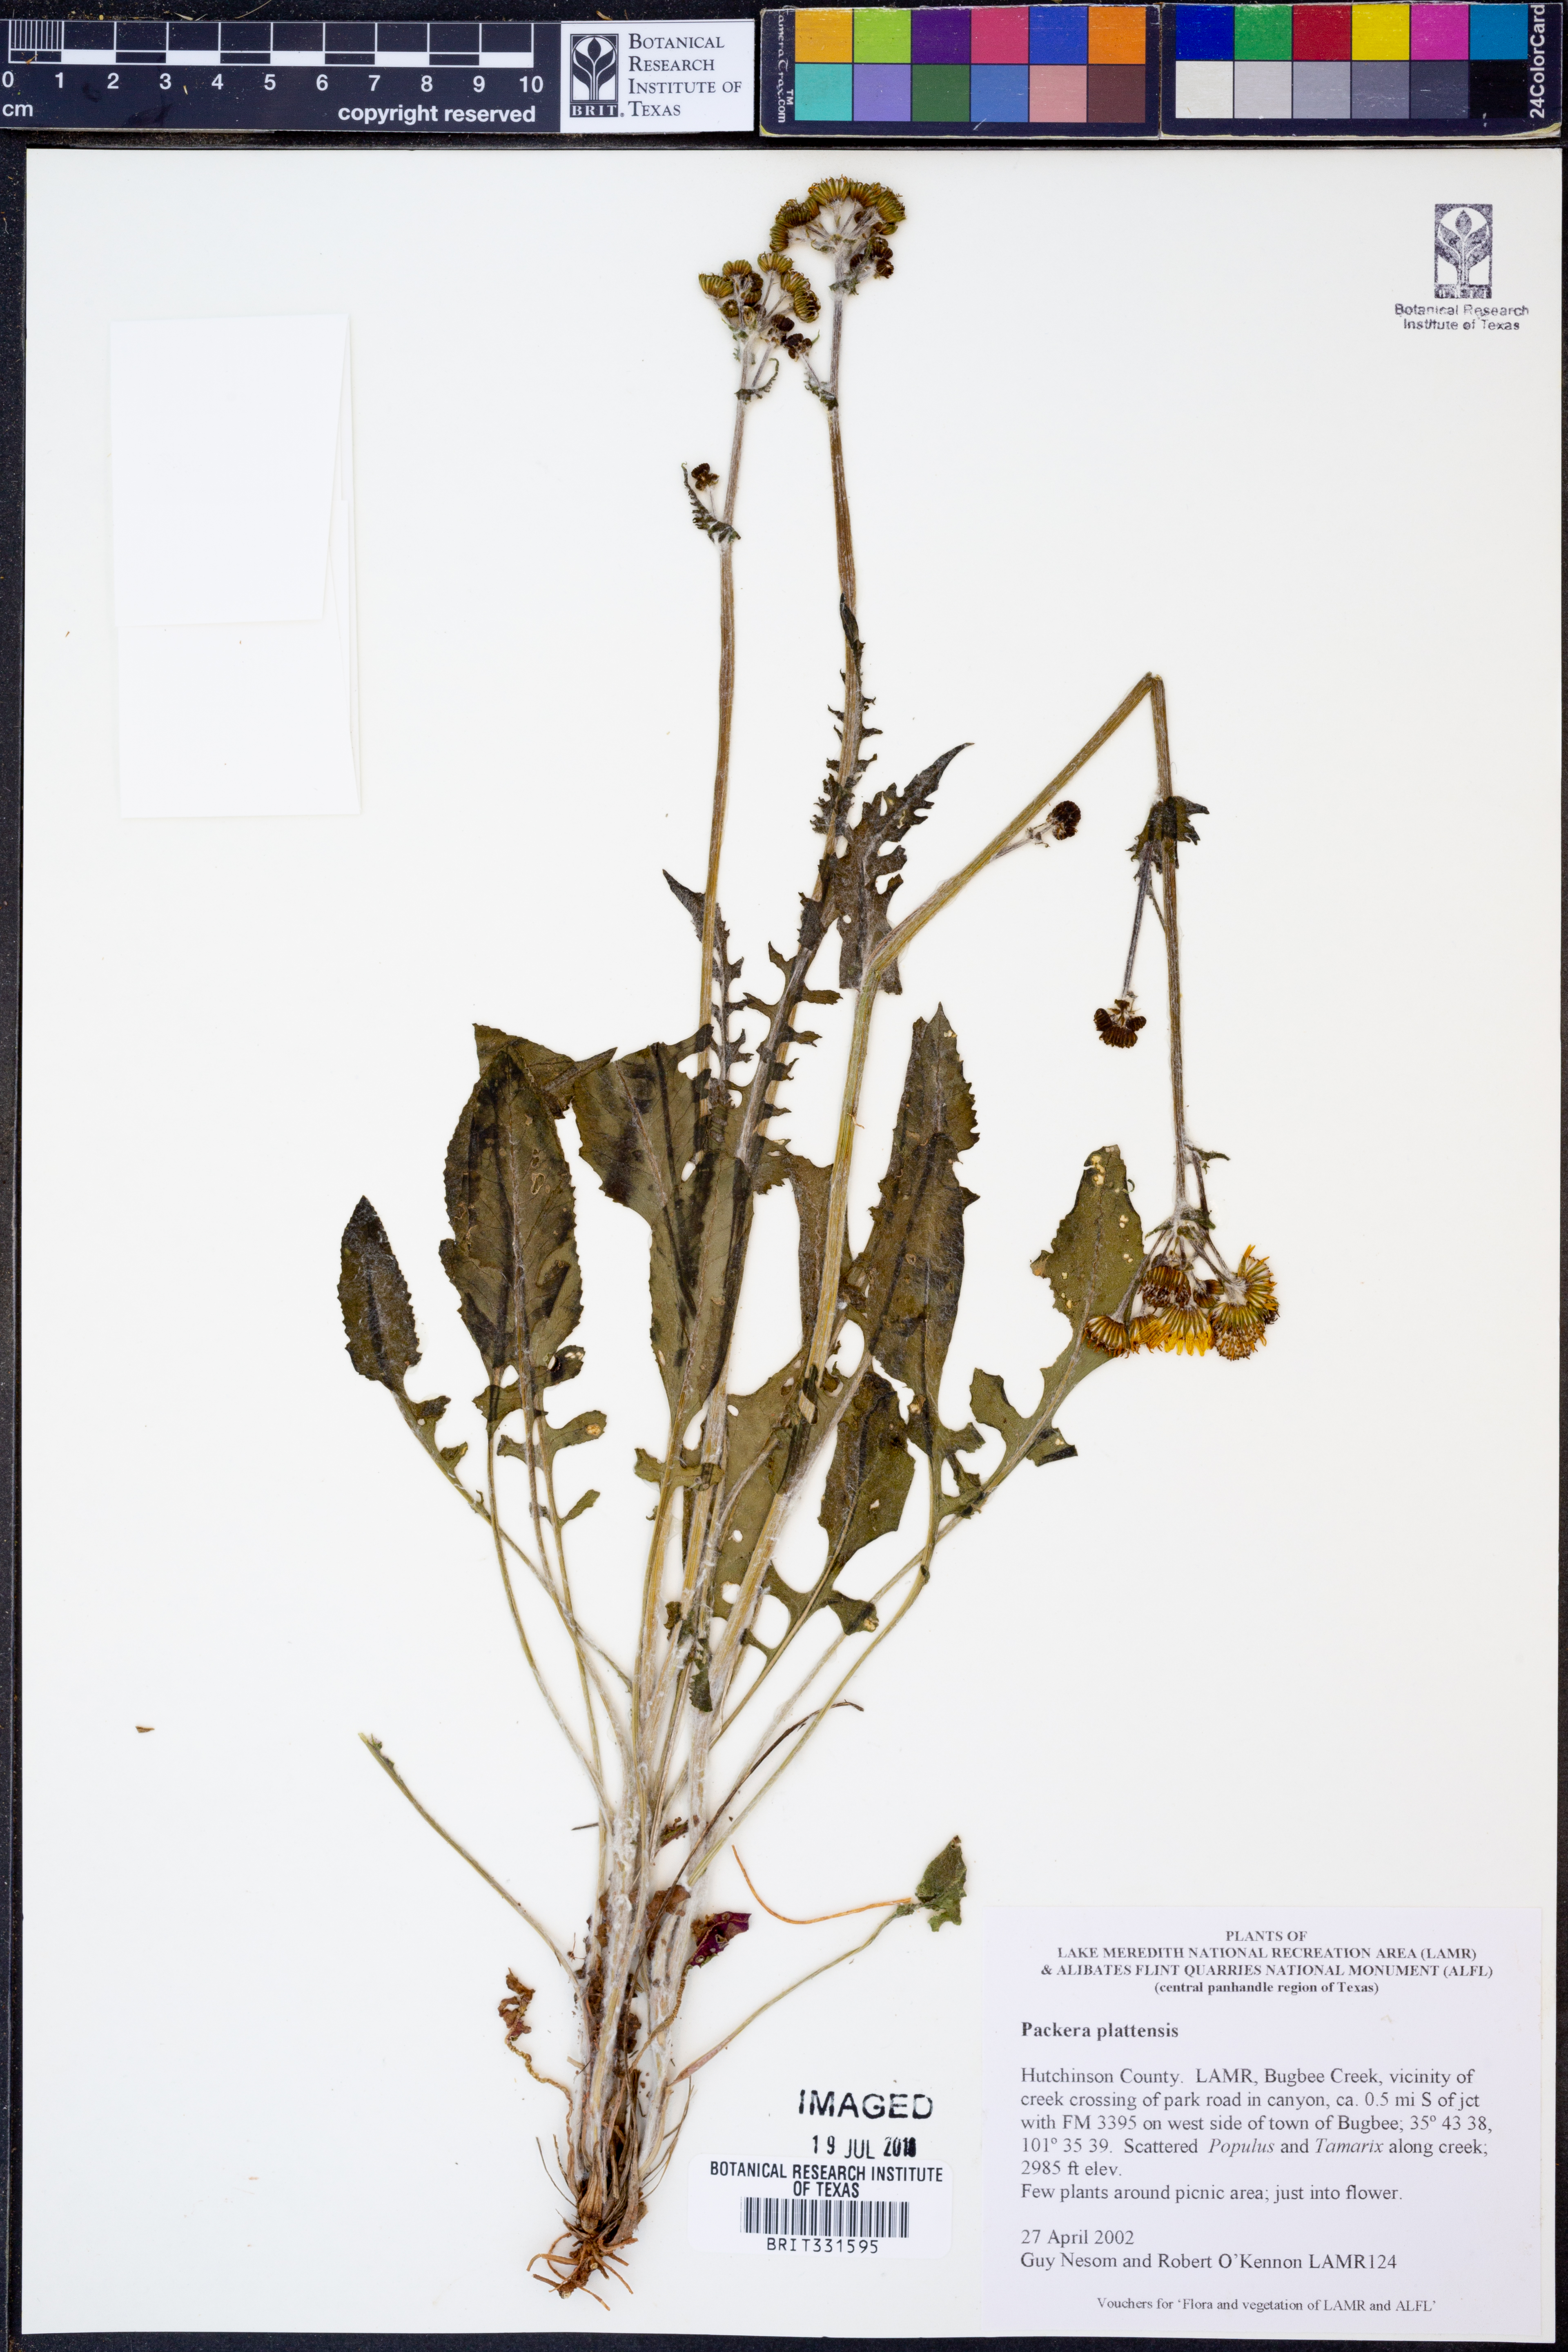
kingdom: Plantae
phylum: Tracheophyta
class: Magnoliopsida
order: Asterales
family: Asteraceae
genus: Packera
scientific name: Packera plattensis
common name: Prairie groundsel
